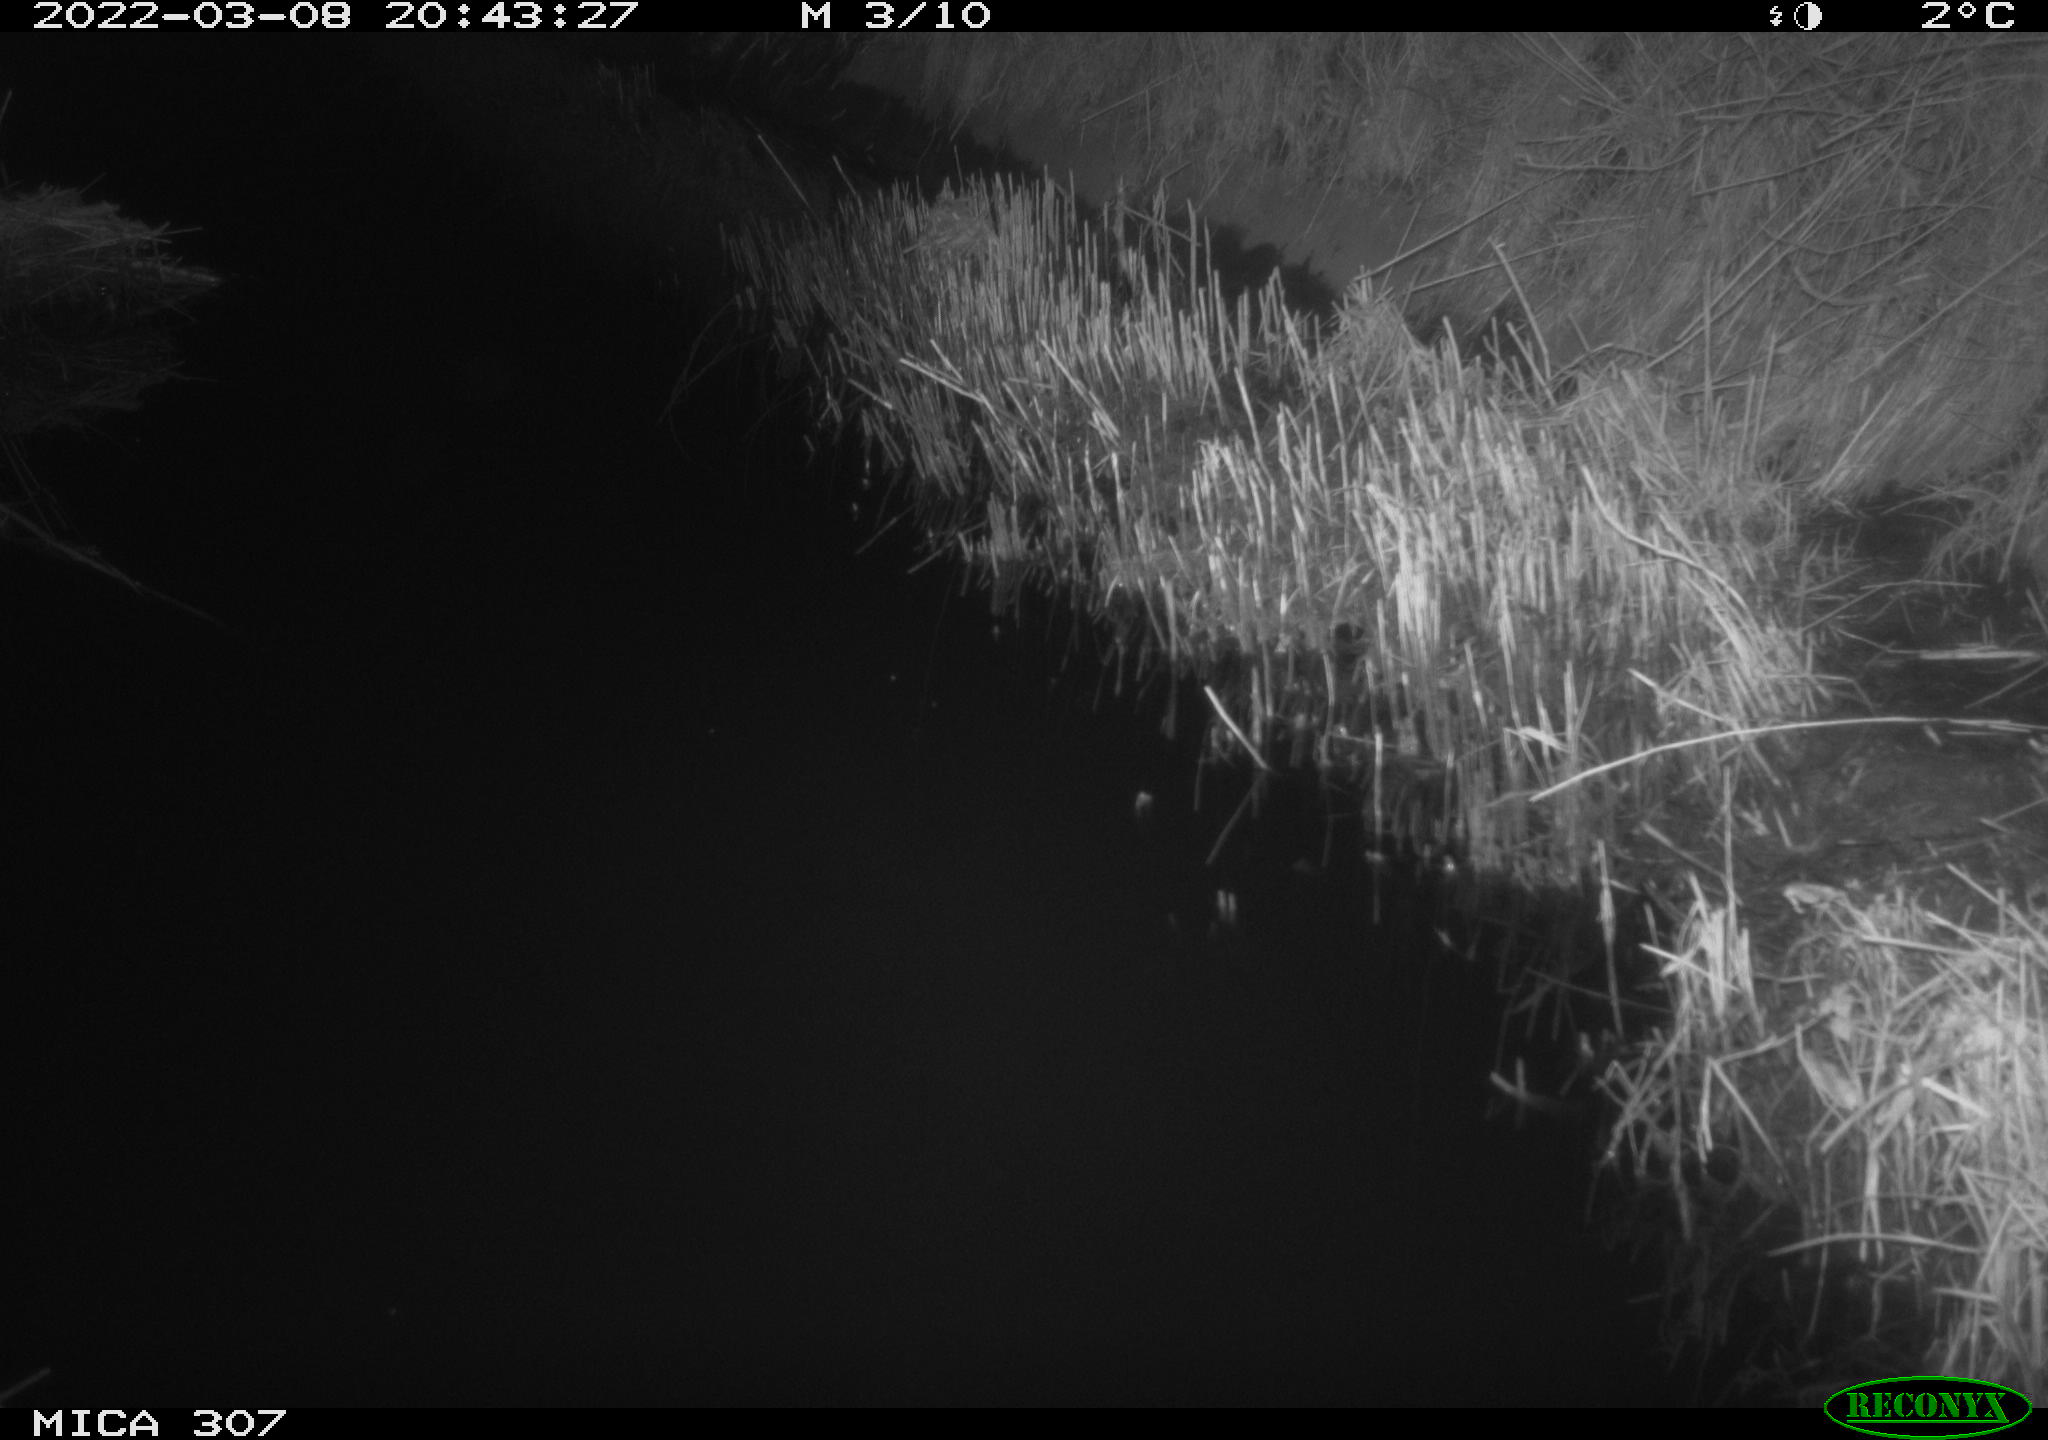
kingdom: Animalia
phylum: Chordata
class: Mammalia
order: Rodentia
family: Muridae
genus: Rattus
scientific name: Rattus norvegicus
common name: Brown rat
